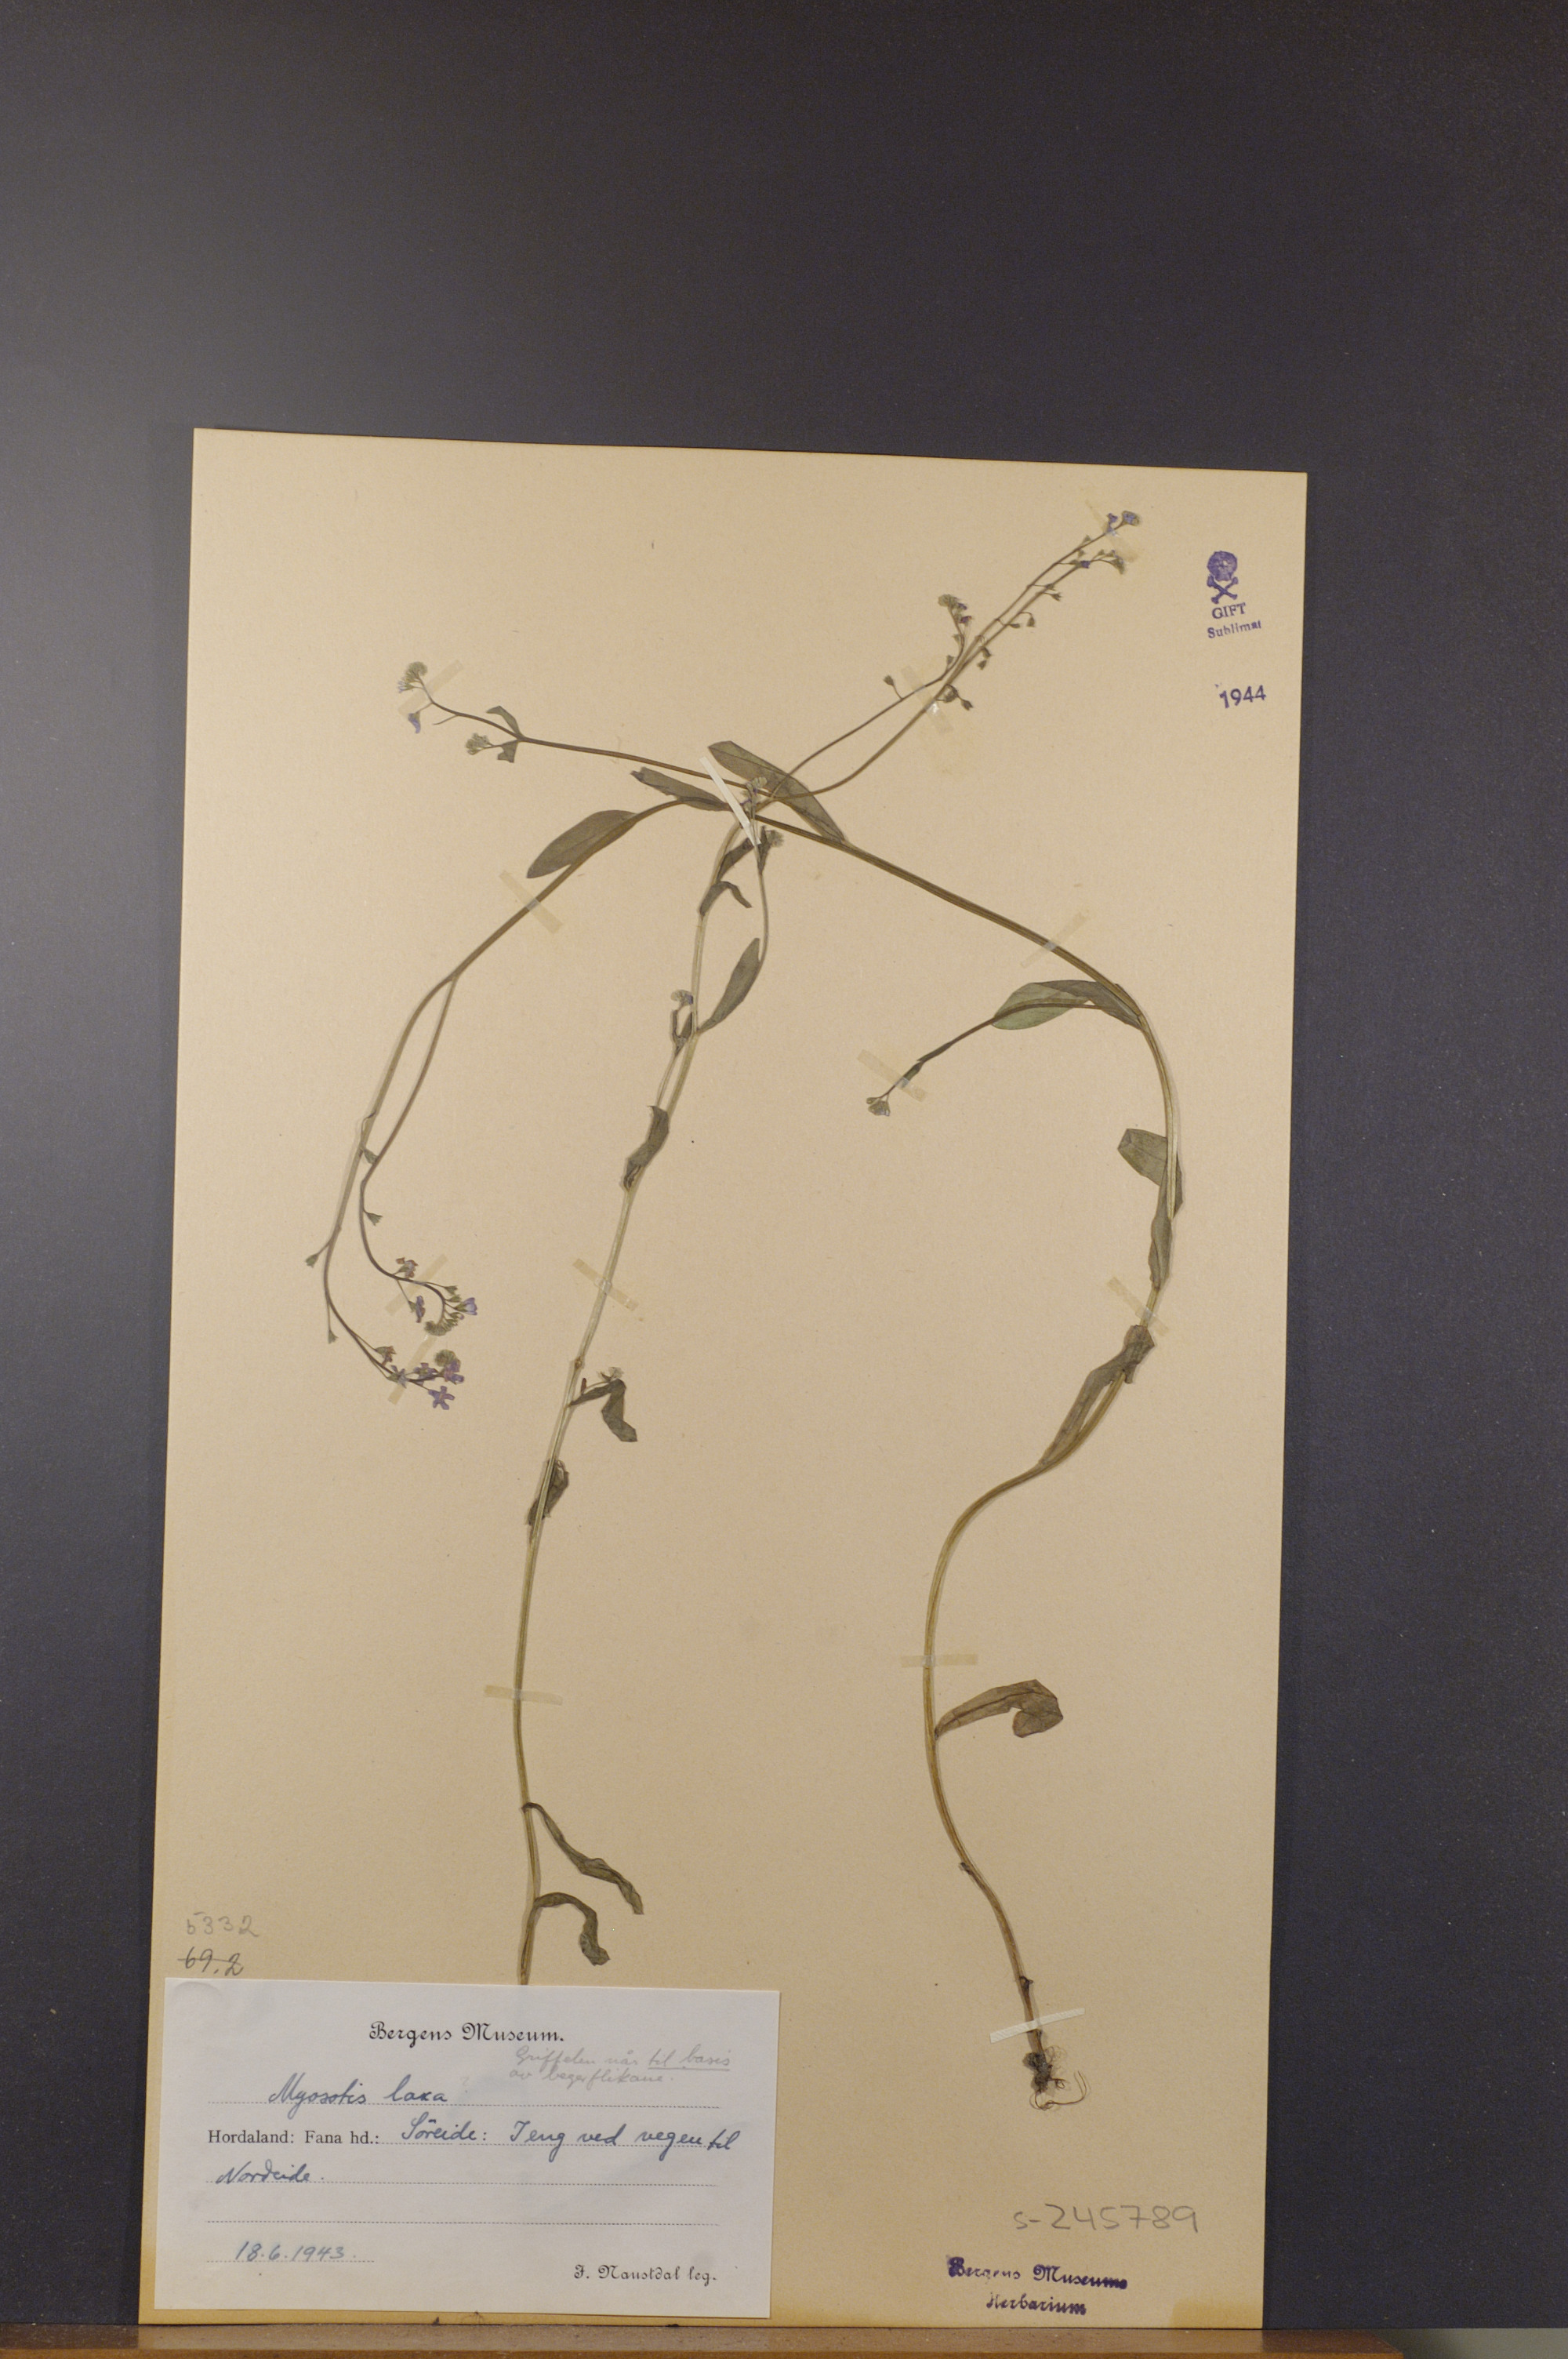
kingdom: Plantae
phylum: Tracheophyta
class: Magnoliopsida
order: Boraginales
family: Boraginaceae
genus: Myosotis
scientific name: Myosotis laxa
